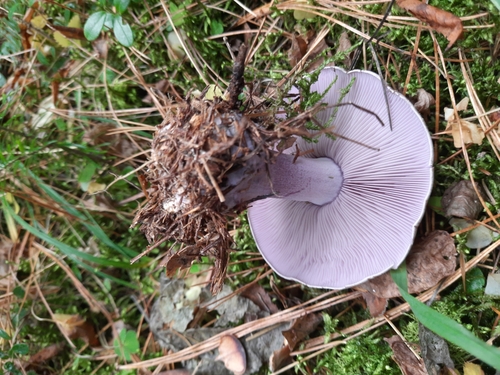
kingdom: Fungi
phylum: Basidiomycota
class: Agaricomycetes
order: Agaricales
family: Tricholomataceae
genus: Lepista
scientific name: Lepista nuda
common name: Wood blewit
